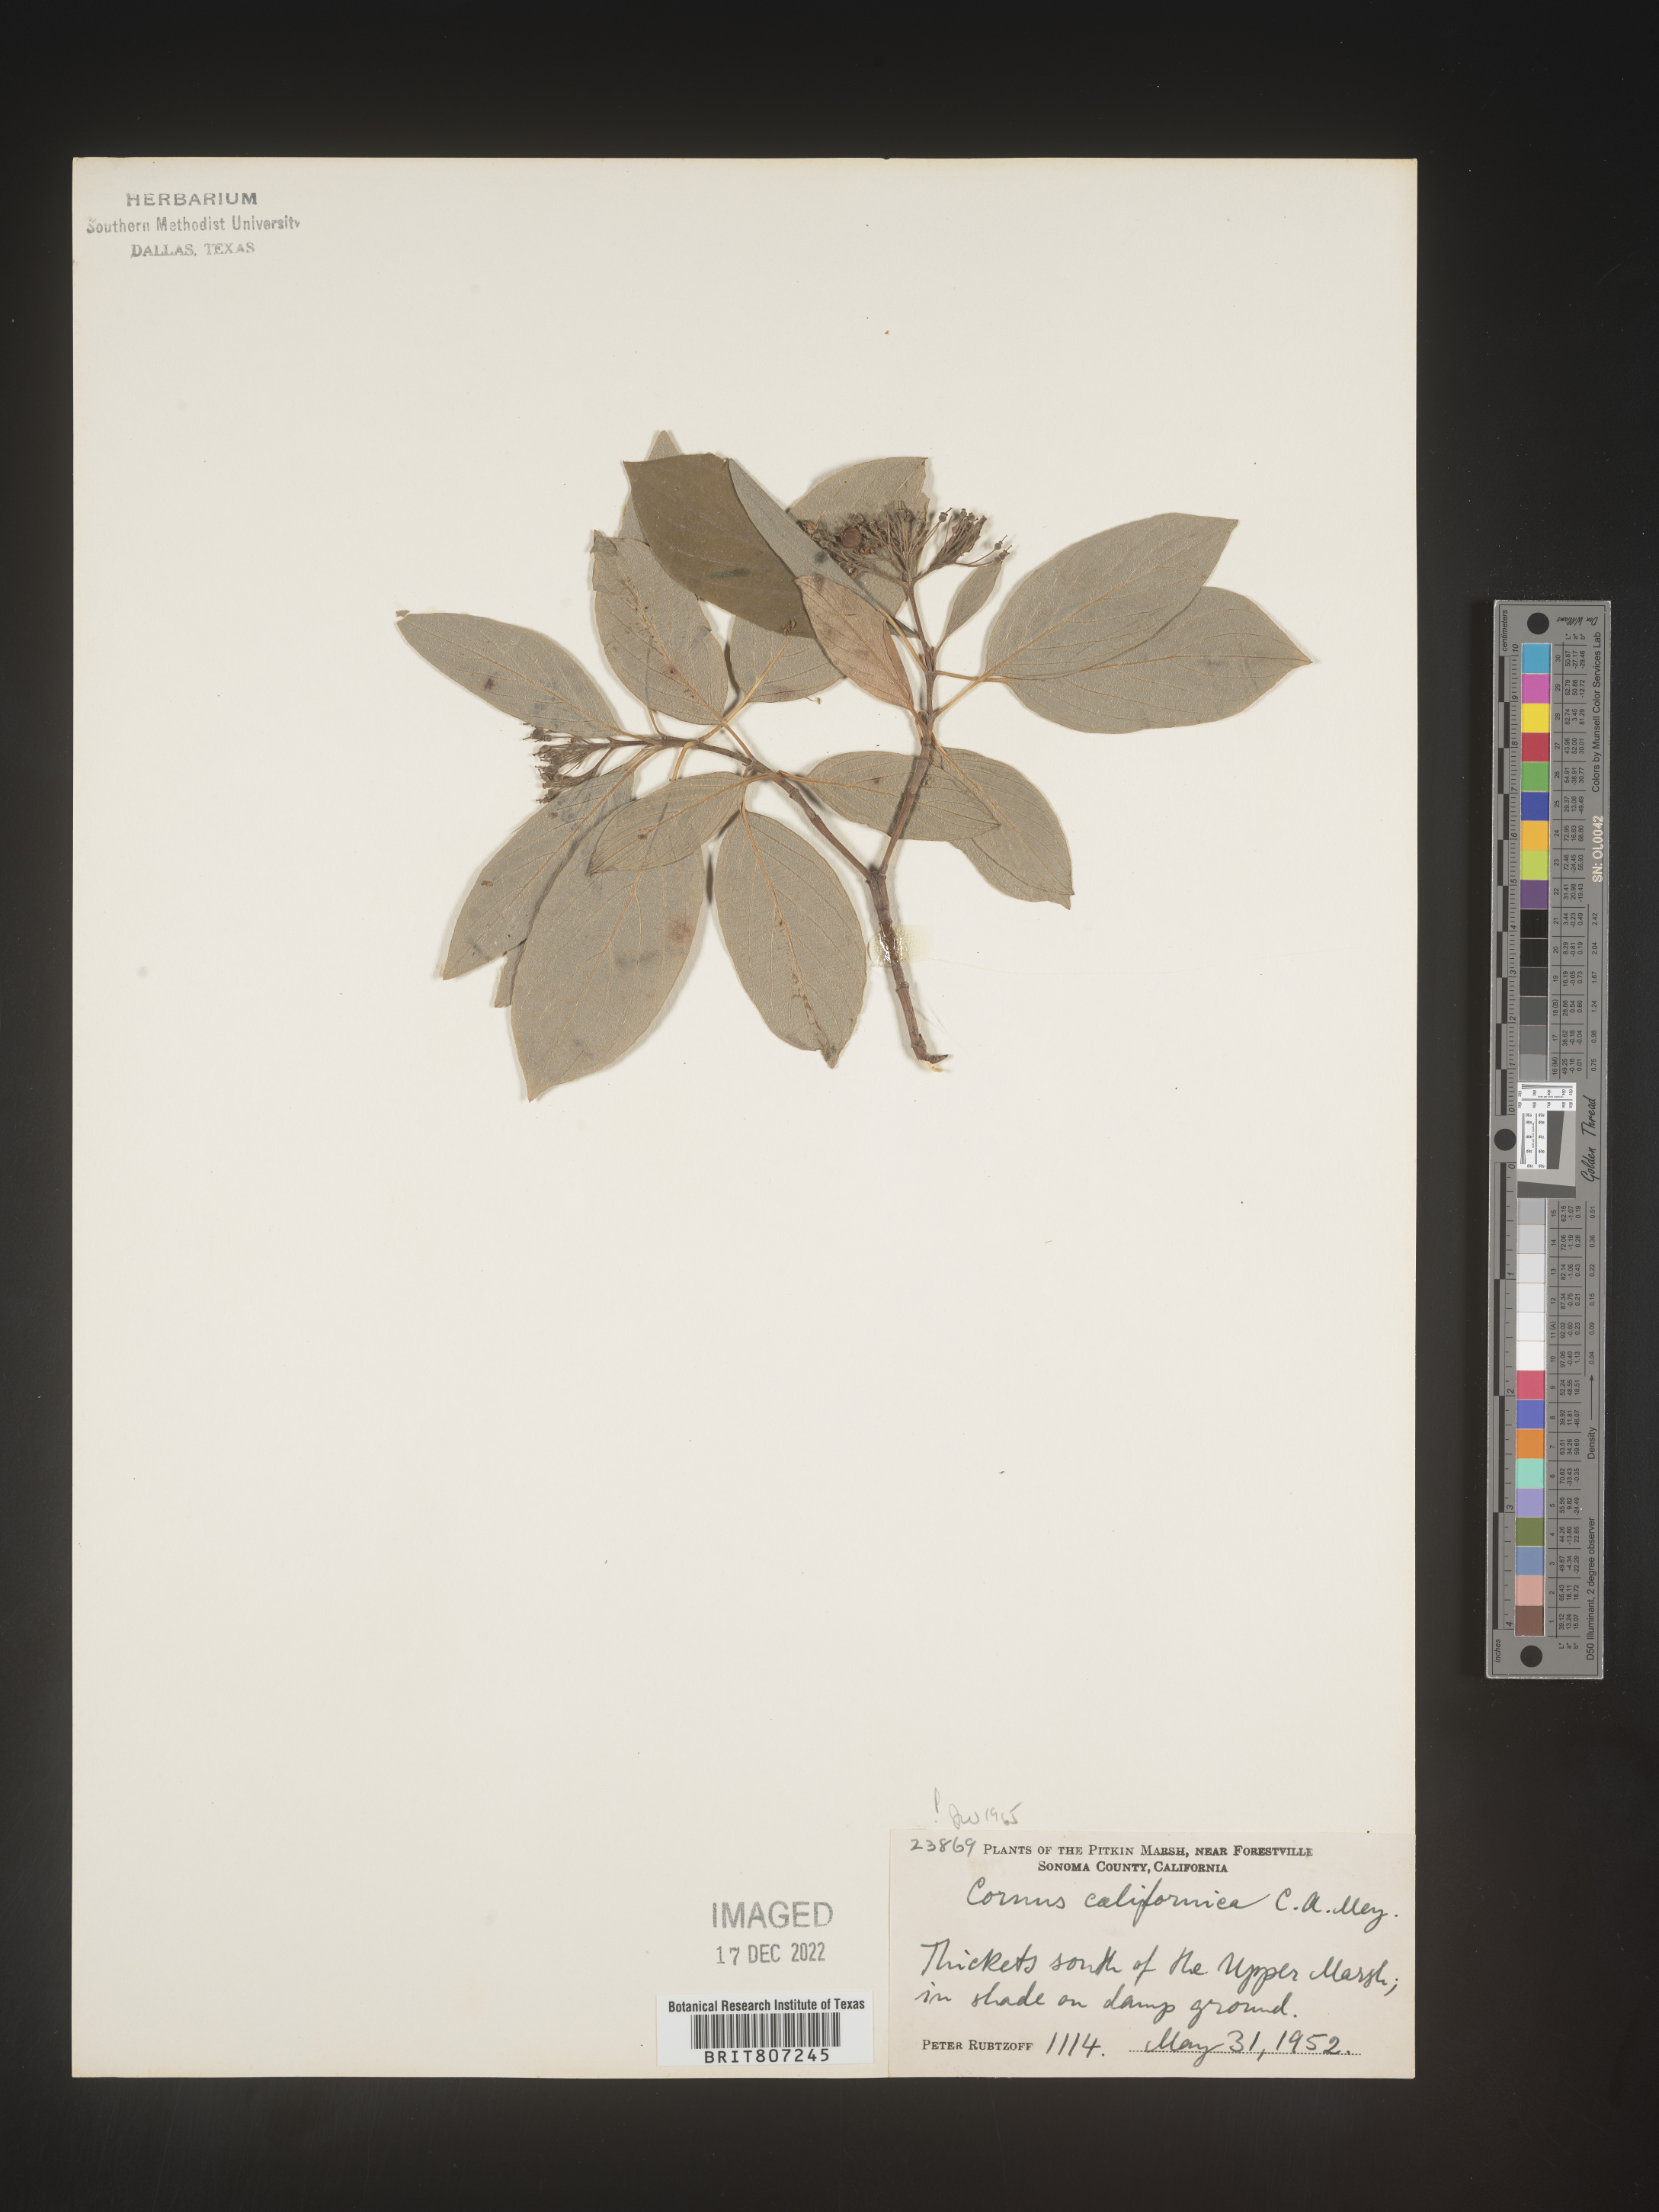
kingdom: Plantae
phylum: Tracheophyta
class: Magnoliopsida
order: Cornales
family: Cornaceae
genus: Cornus
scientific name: Cornus
